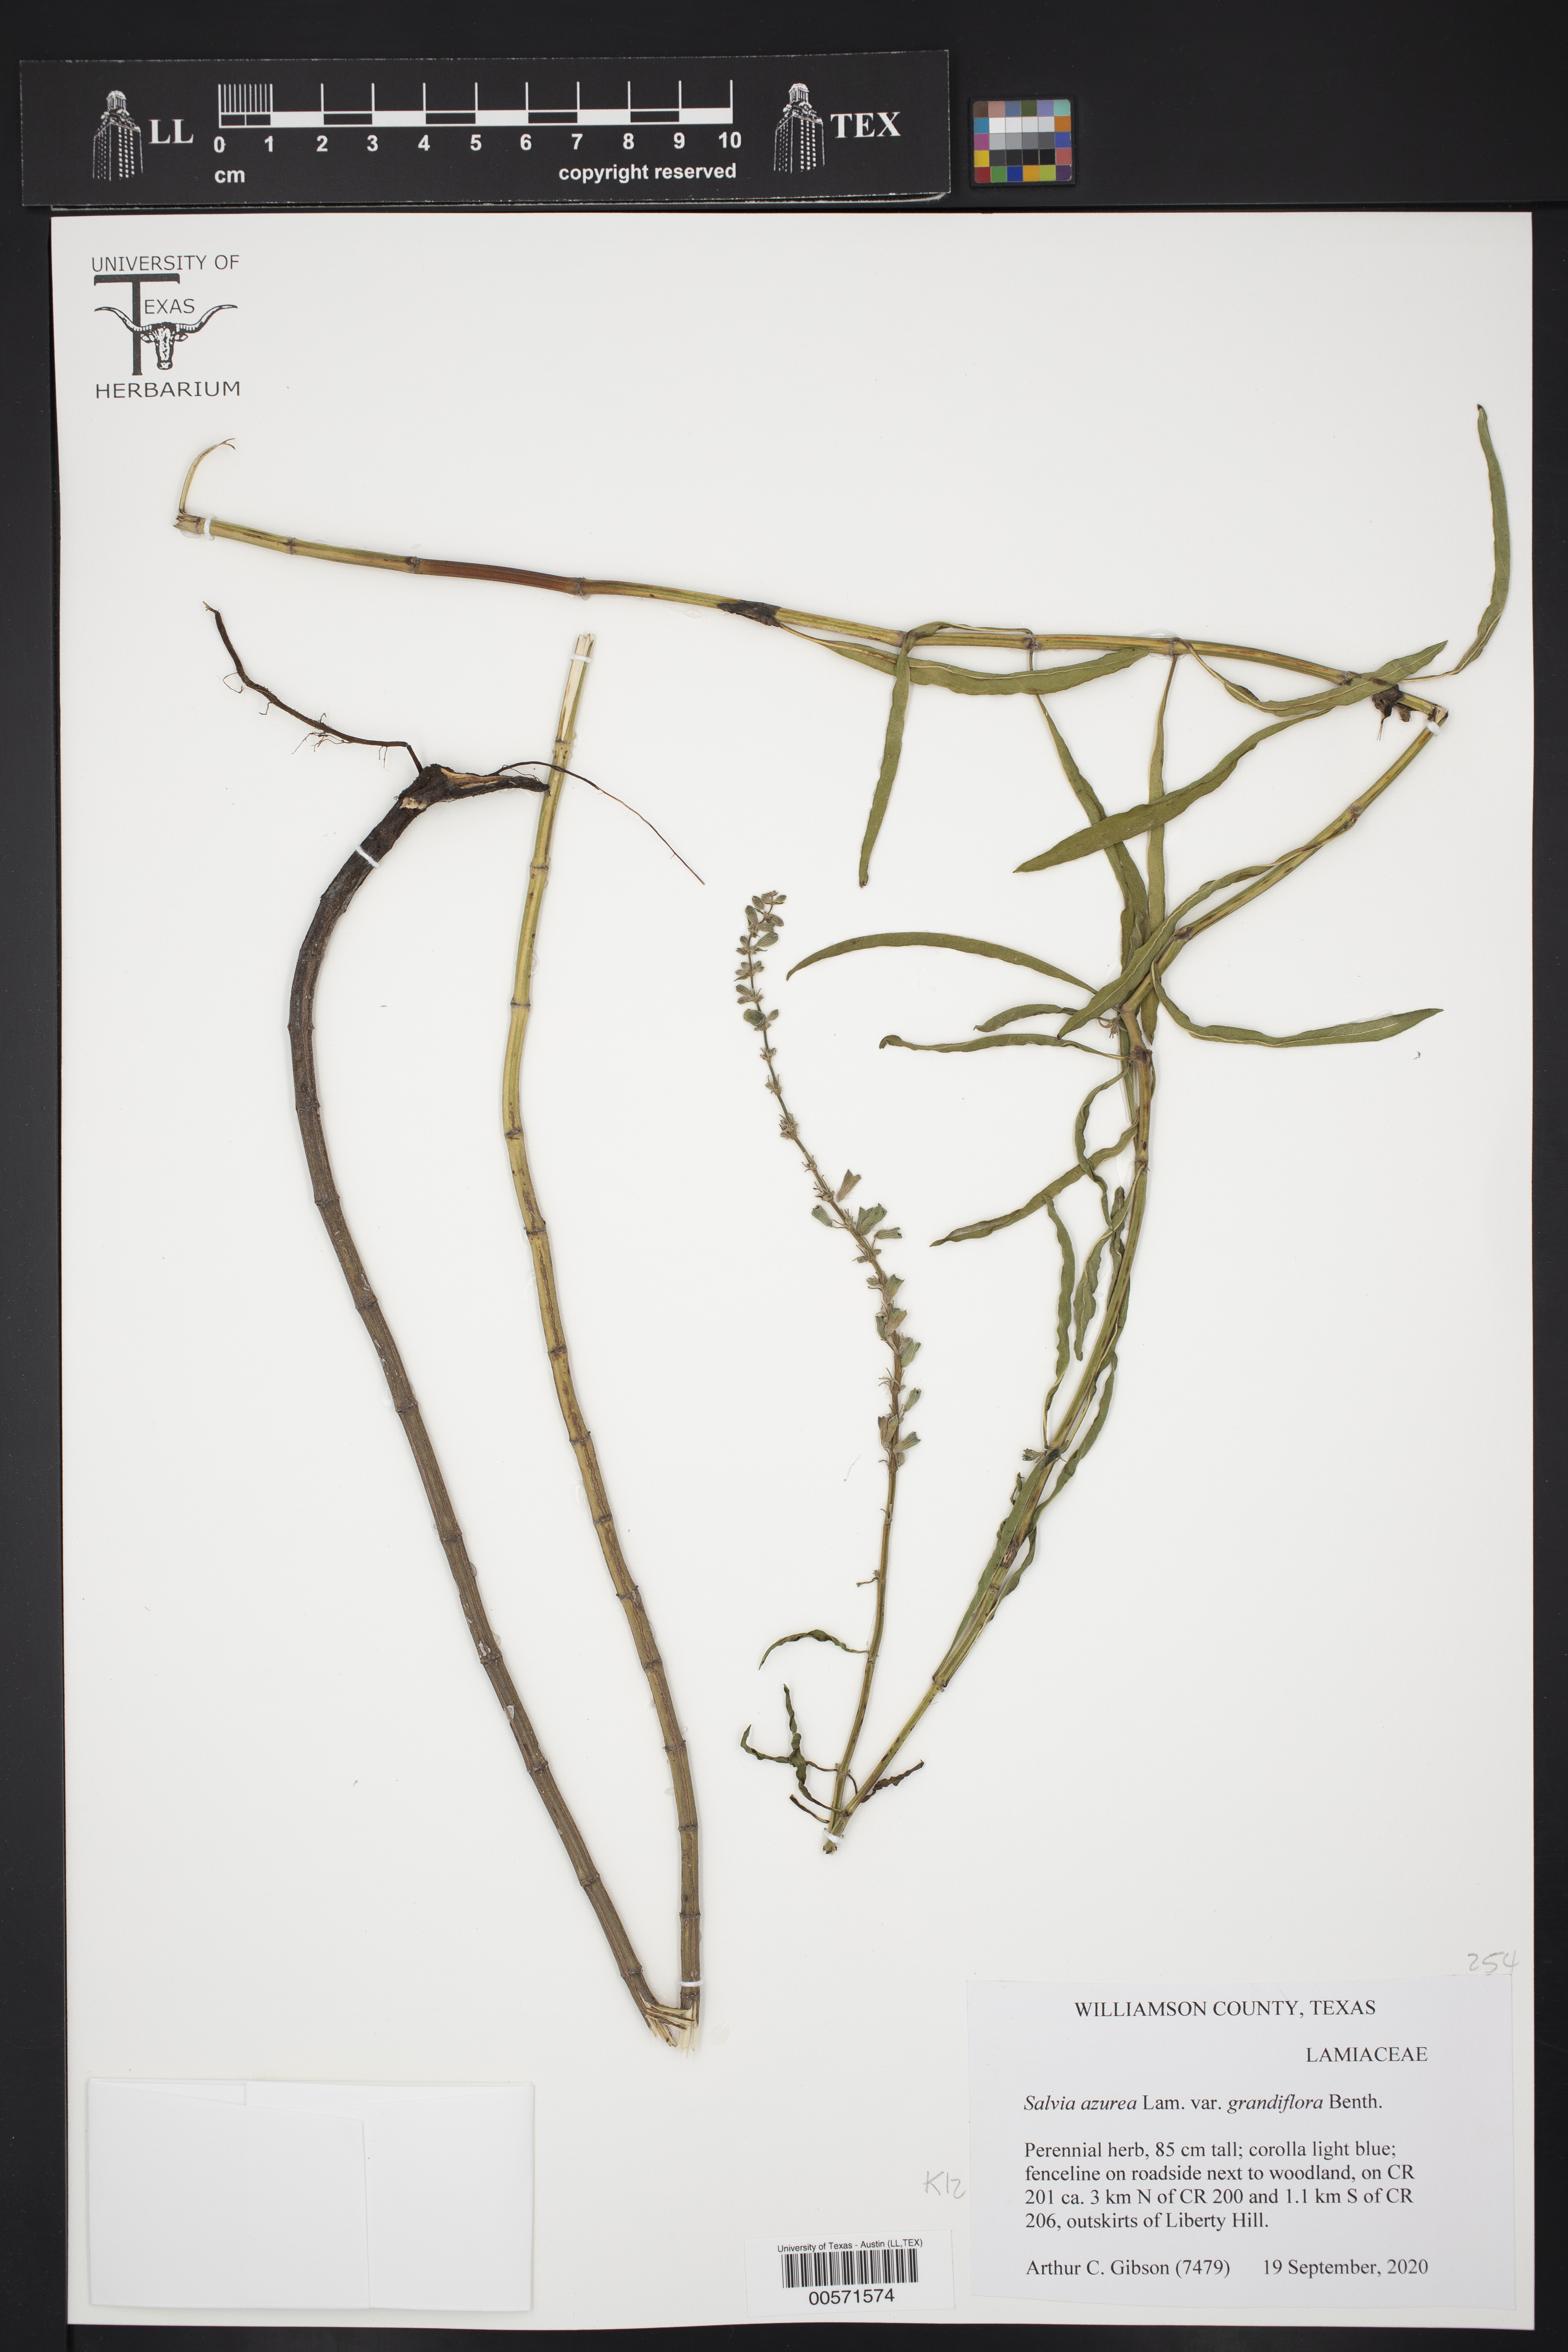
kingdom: Plantae
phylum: Tracheophyta
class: Magnoliopsida
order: Lamiales
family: Lamiaceae
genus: Salvia
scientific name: Salvia azurea
